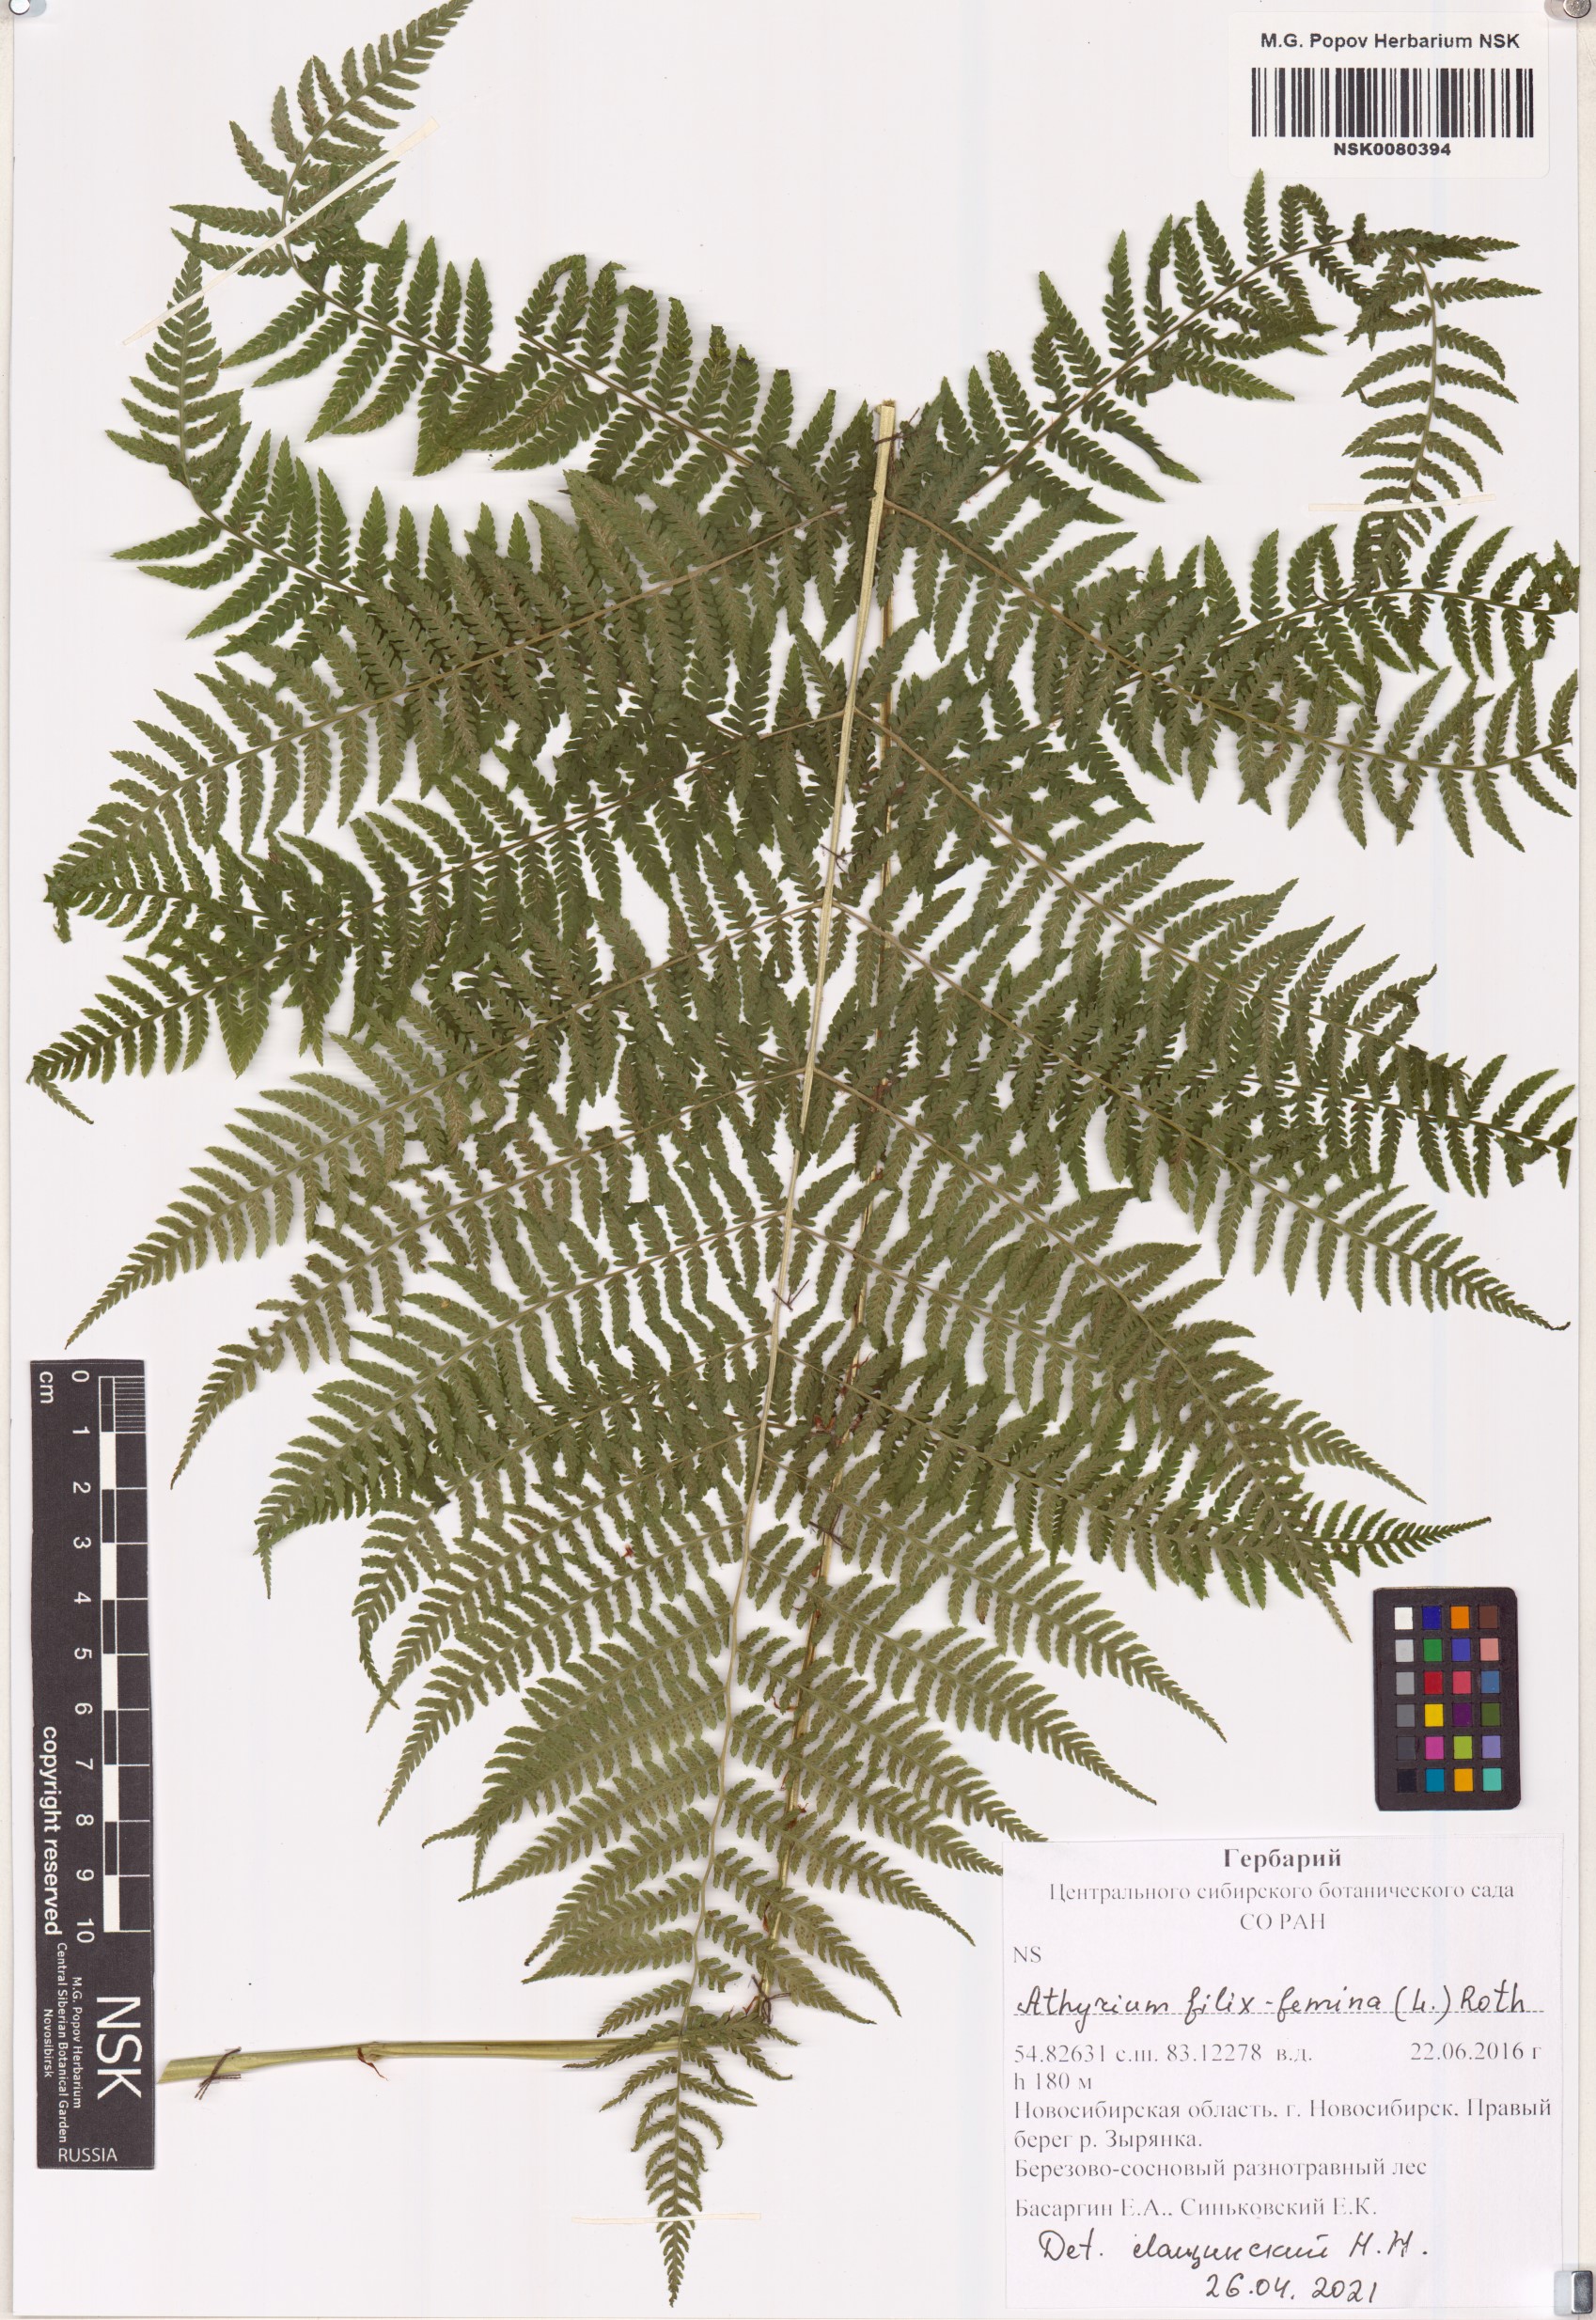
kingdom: Plantae
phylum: Tracheophyta
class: Polypodiopsida
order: Polypodiales
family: Athyriaceae
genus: Athyrium
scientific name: Athyrium filix-femina
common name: Lady fern
